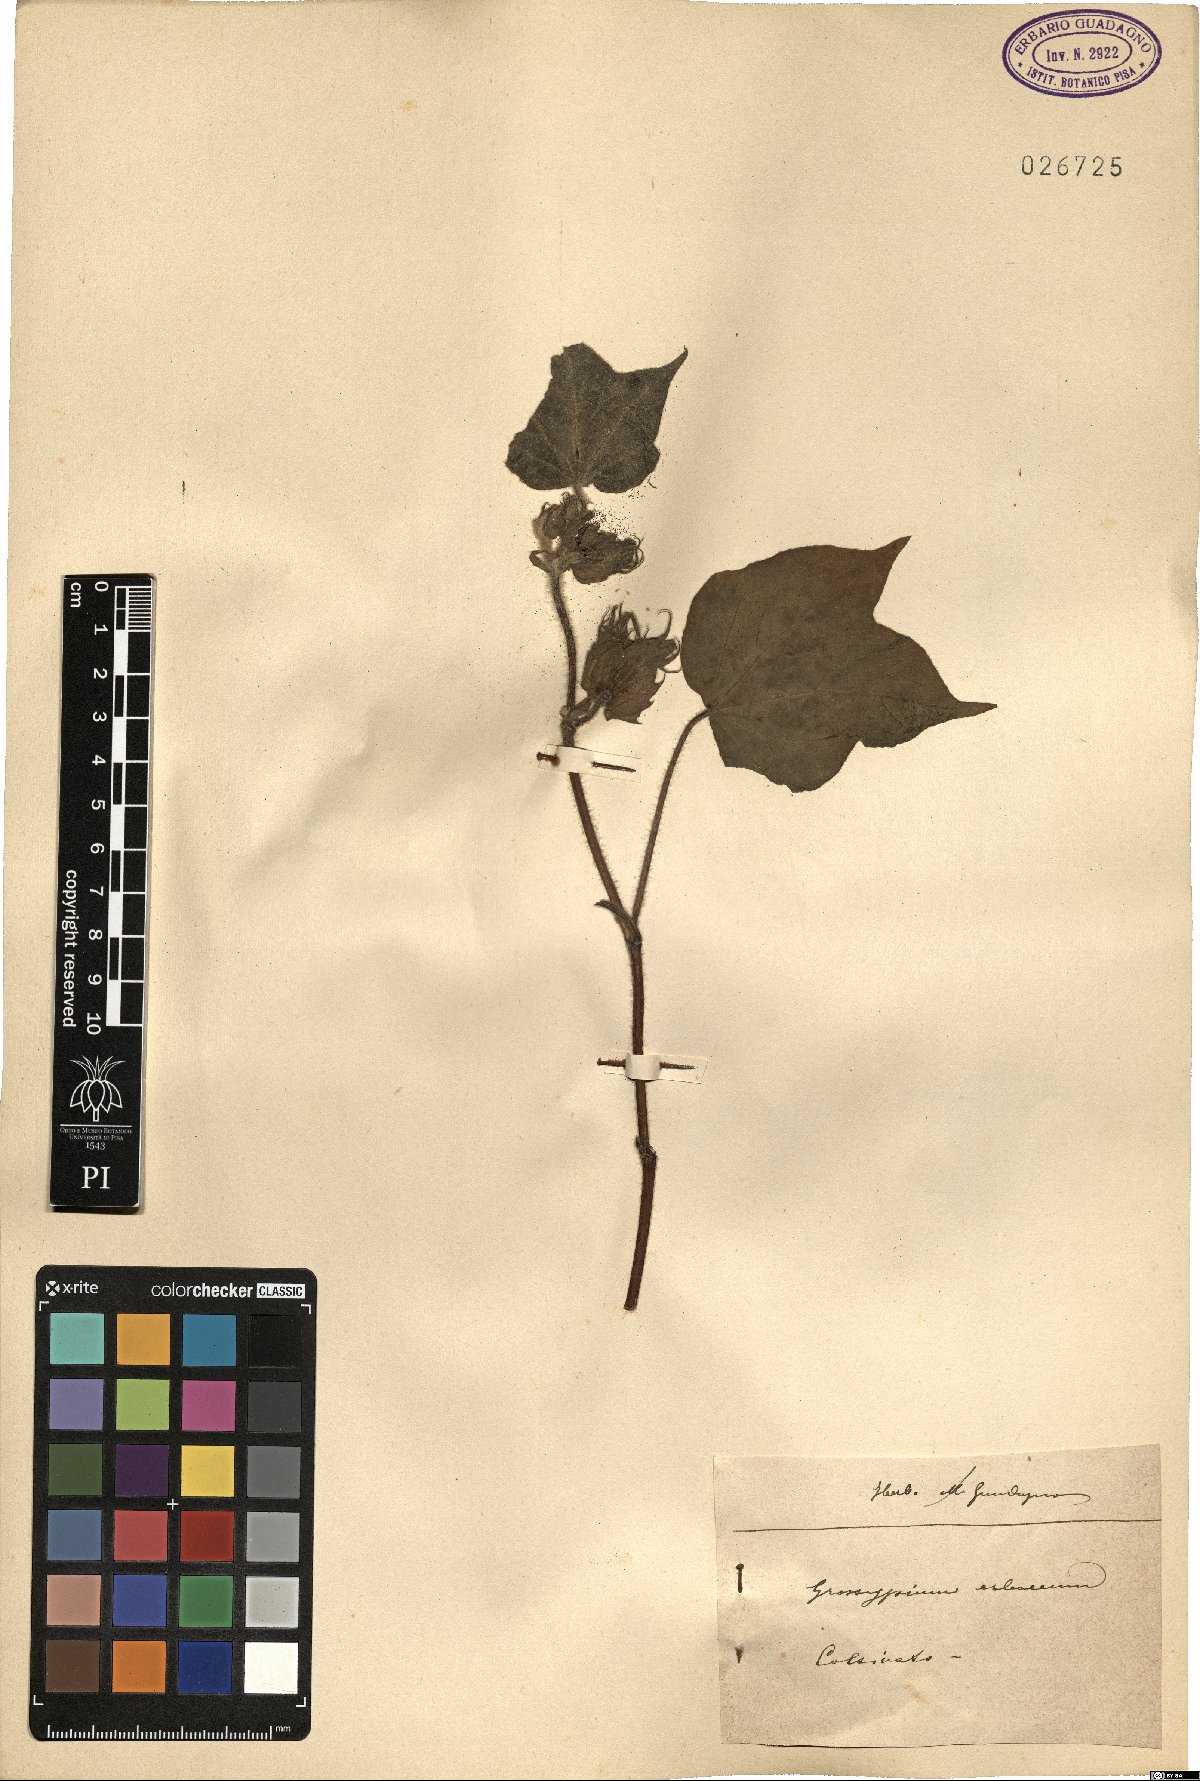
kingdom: Plantae
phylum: Tracheophyta
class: Magnoliopsida
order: Malvales
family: Malvaceae
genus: Gossypium
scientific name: Gossypium herbaceum
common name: Levant cotton
